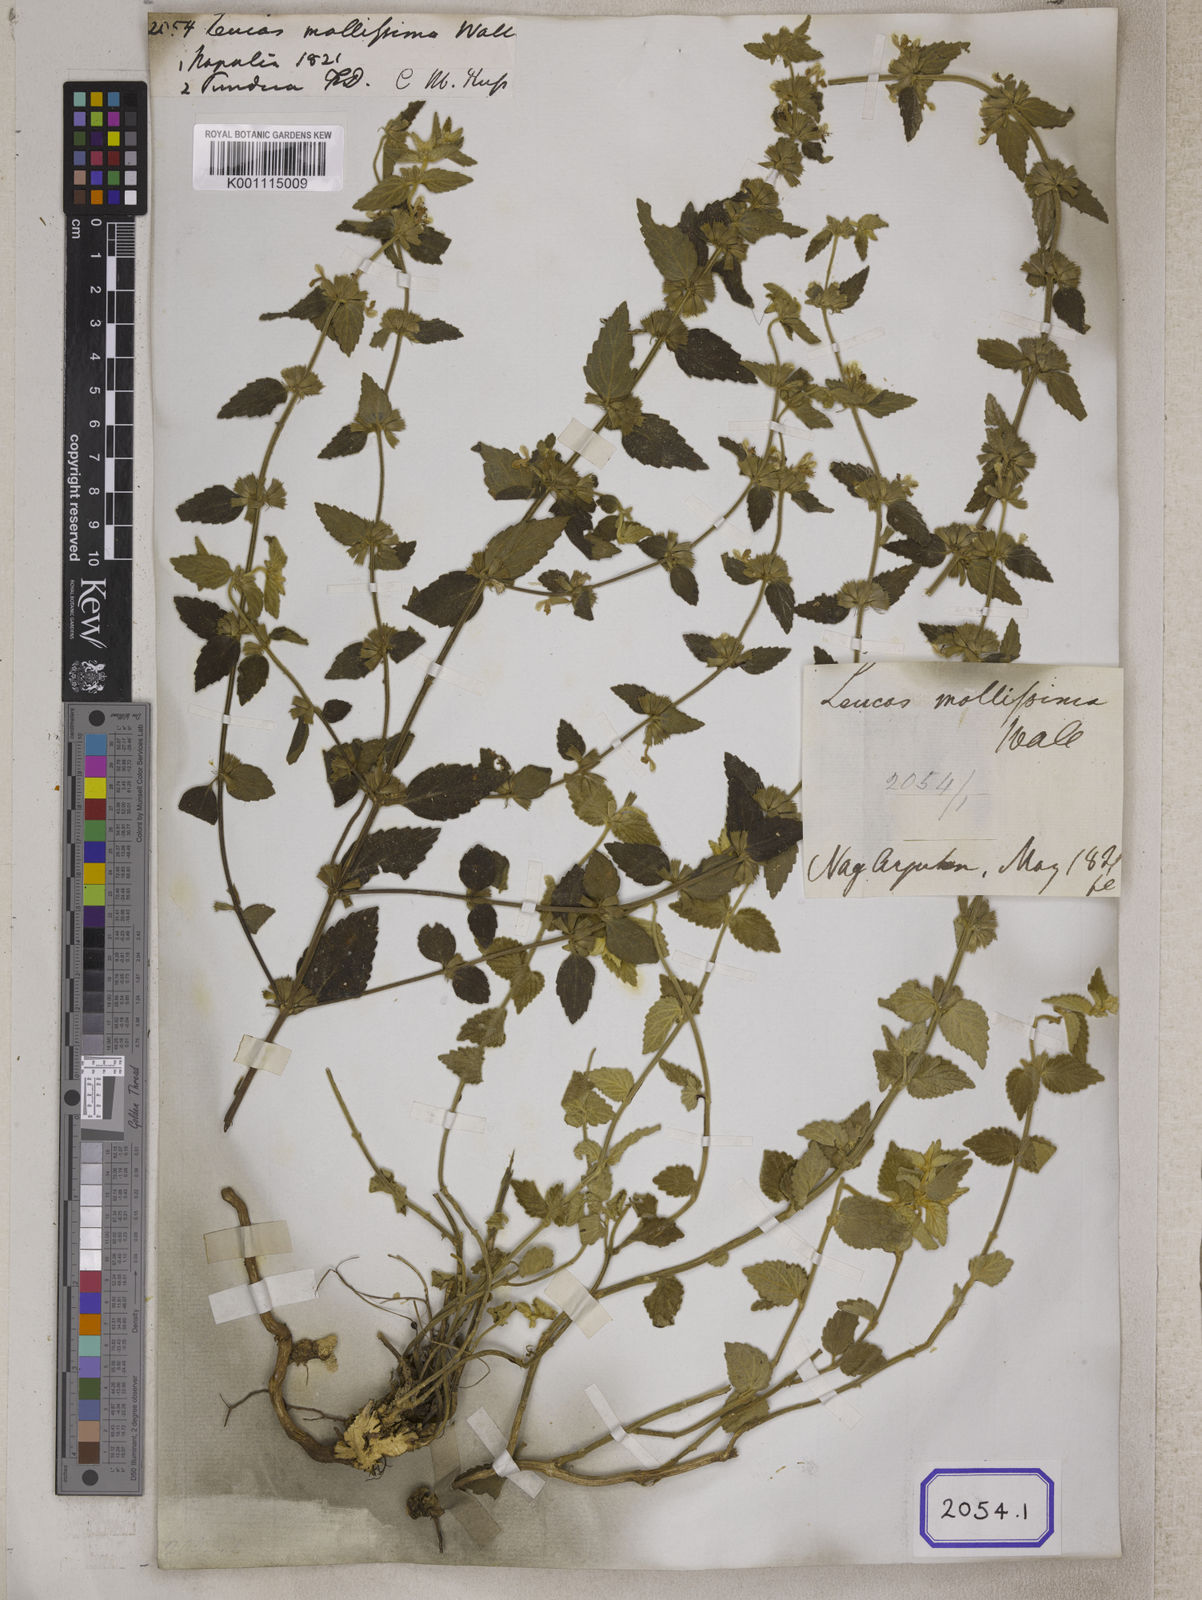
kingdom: Plantae
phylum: Tracheophyta
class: Magnoliopsida
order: Lamiales
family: Lamiaceae
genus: Leucas
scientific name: Leucas
